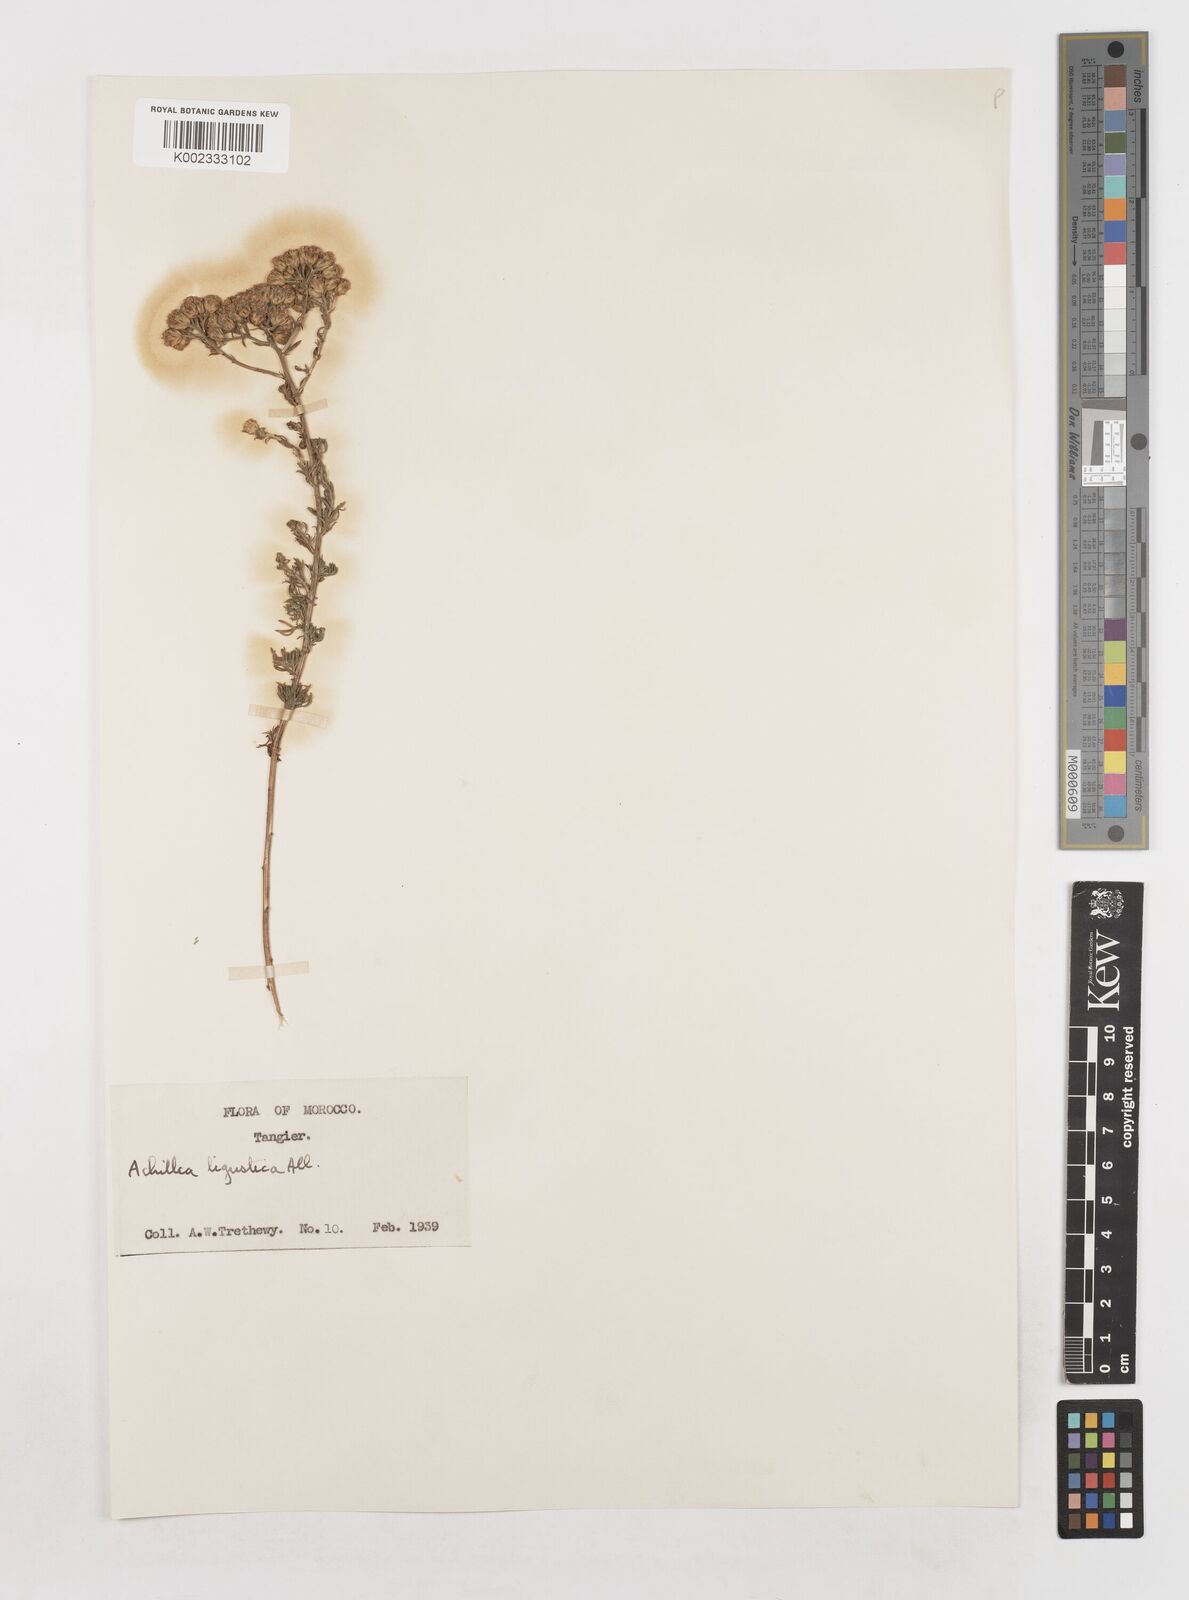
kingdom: Plantae
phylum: Tracheophyta
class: Magnoliopsida
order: Asterales
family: Asteraceae
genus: Achillea
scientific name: Achillea ligustica
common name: Southern yarrow
